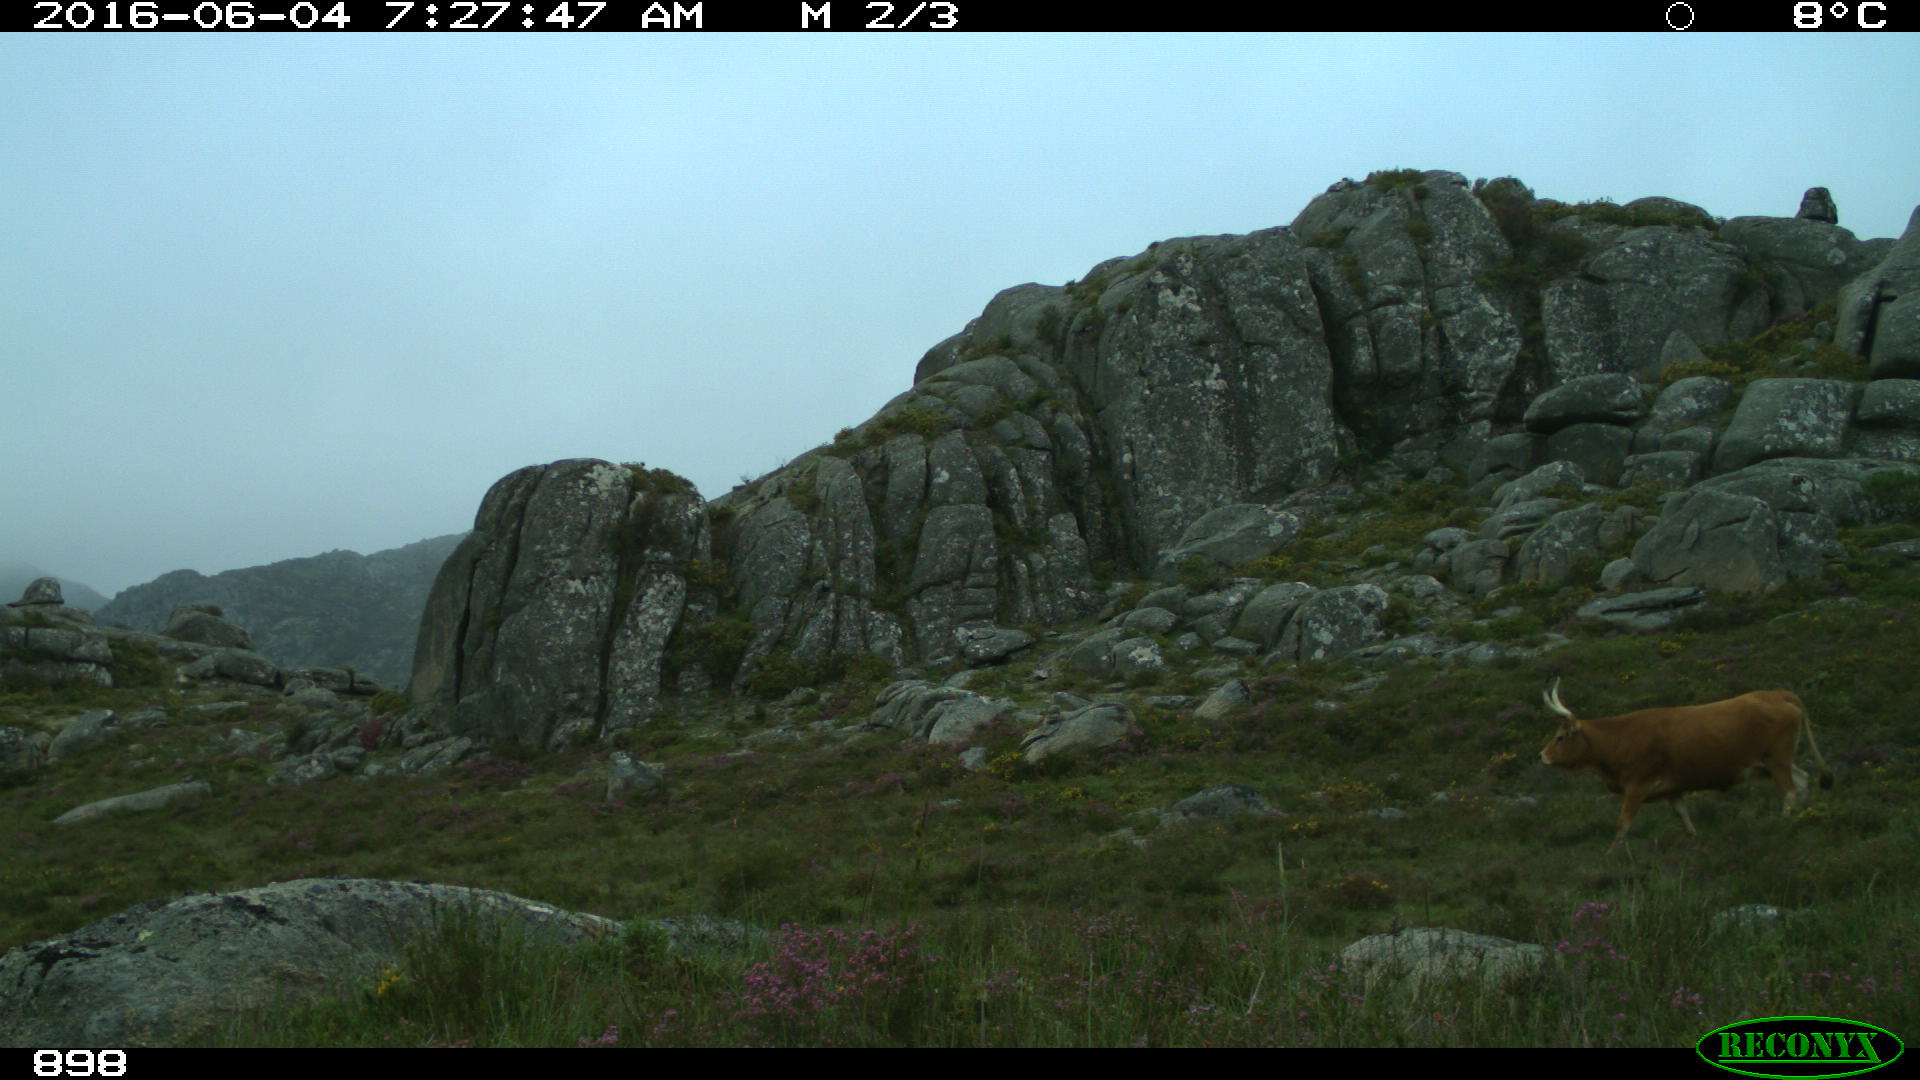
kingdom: Animalia
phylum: Chordata
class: Mammalia
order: Artiodactyla
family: Bovidae
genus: Bos
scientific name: Bos taurus
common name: Domesticated cattle
